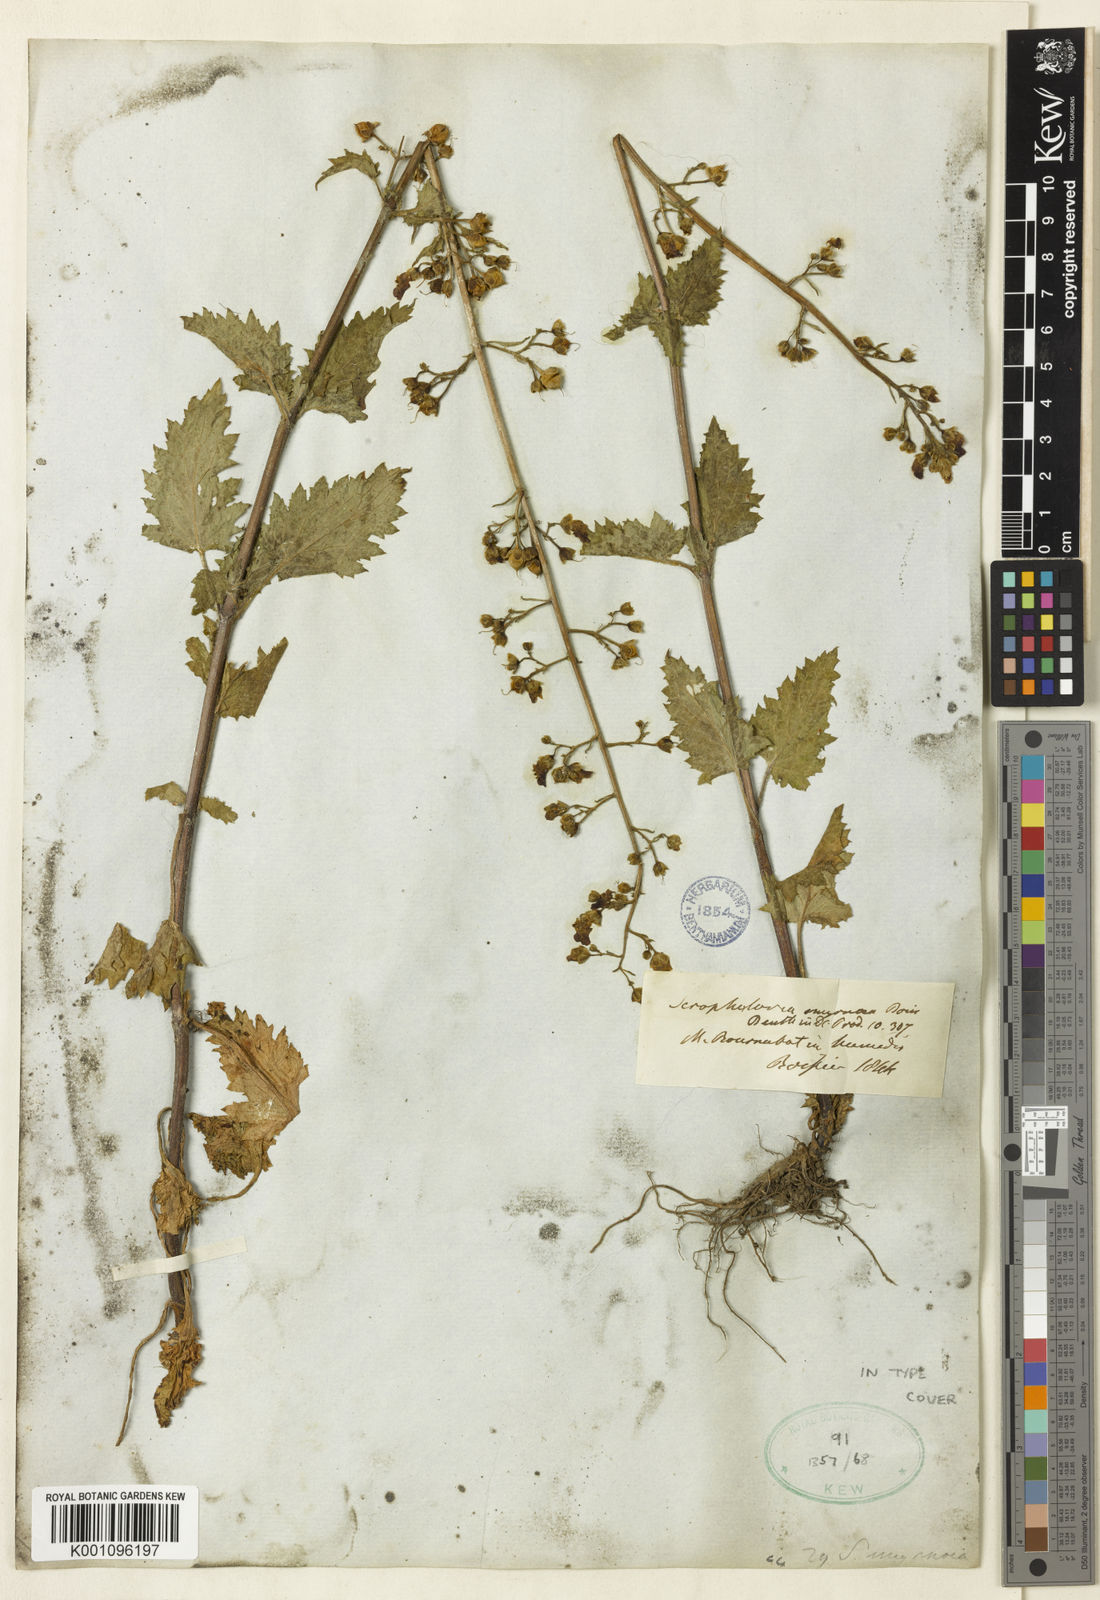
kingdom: Plantae
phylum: Tracheophyta
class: Magnoliopsida
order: Lamiales
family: Scrophulariaceae
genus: Scrophularia
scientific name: Scrophularia scopolii
